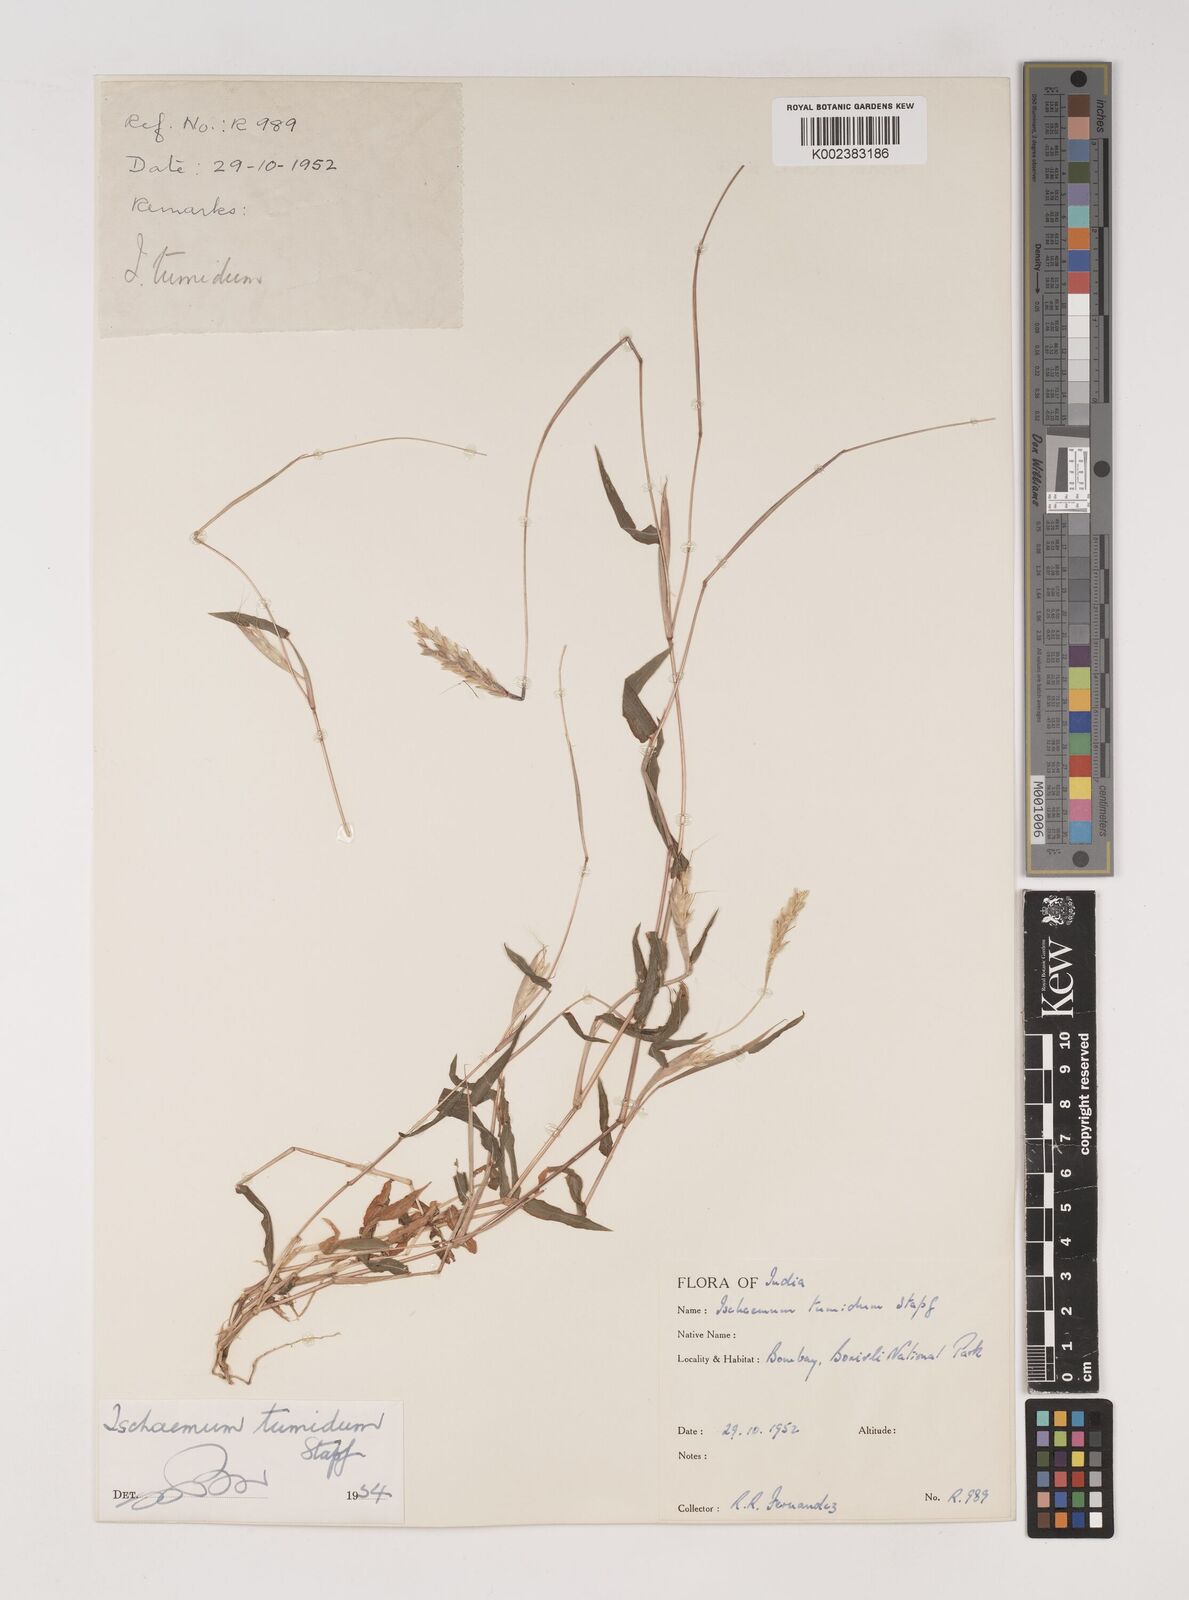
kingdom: Plantae
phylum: Tracheophyta
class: Liliopsida
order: Poales
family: Poaceae
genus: Ischaemum
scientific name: Ischaemum tumidum
